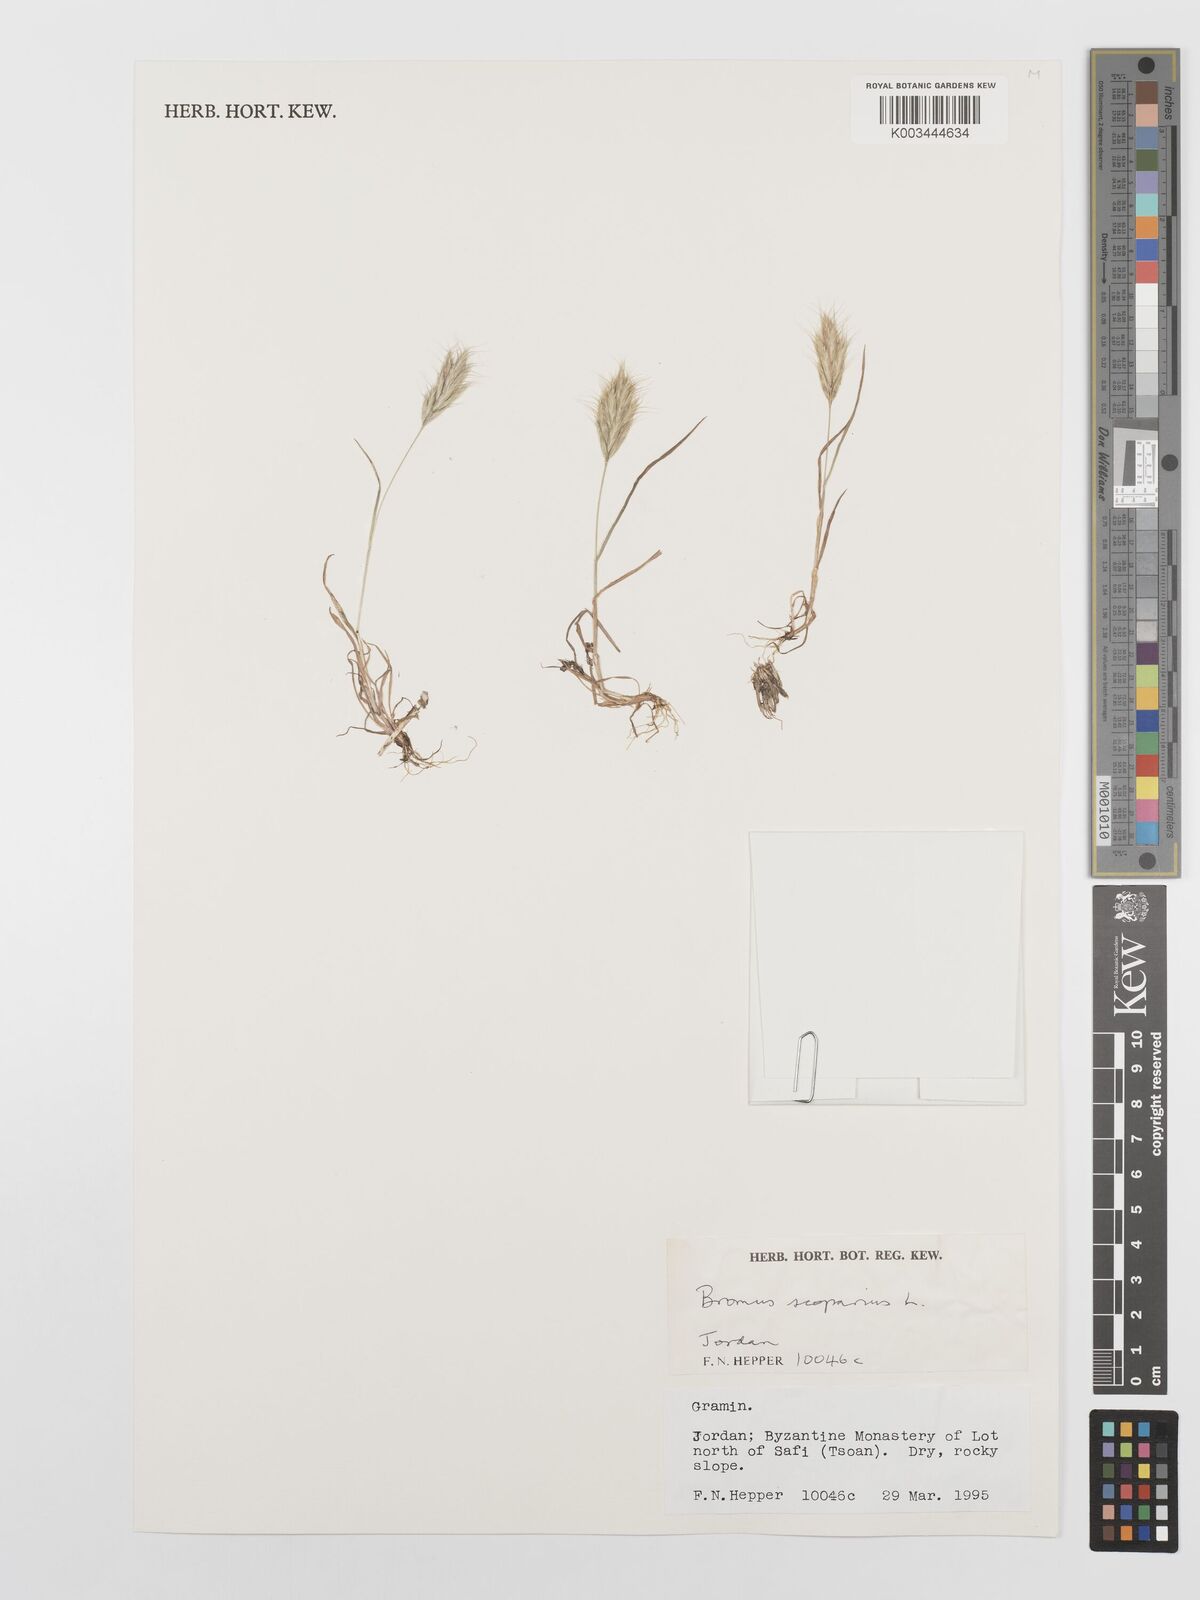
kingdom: Plantae
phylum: Tracheophyta
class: Liliopsida
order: Poales
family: Poaceae
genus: Bromus
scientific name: Bromus scoparius
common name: Broom brome
